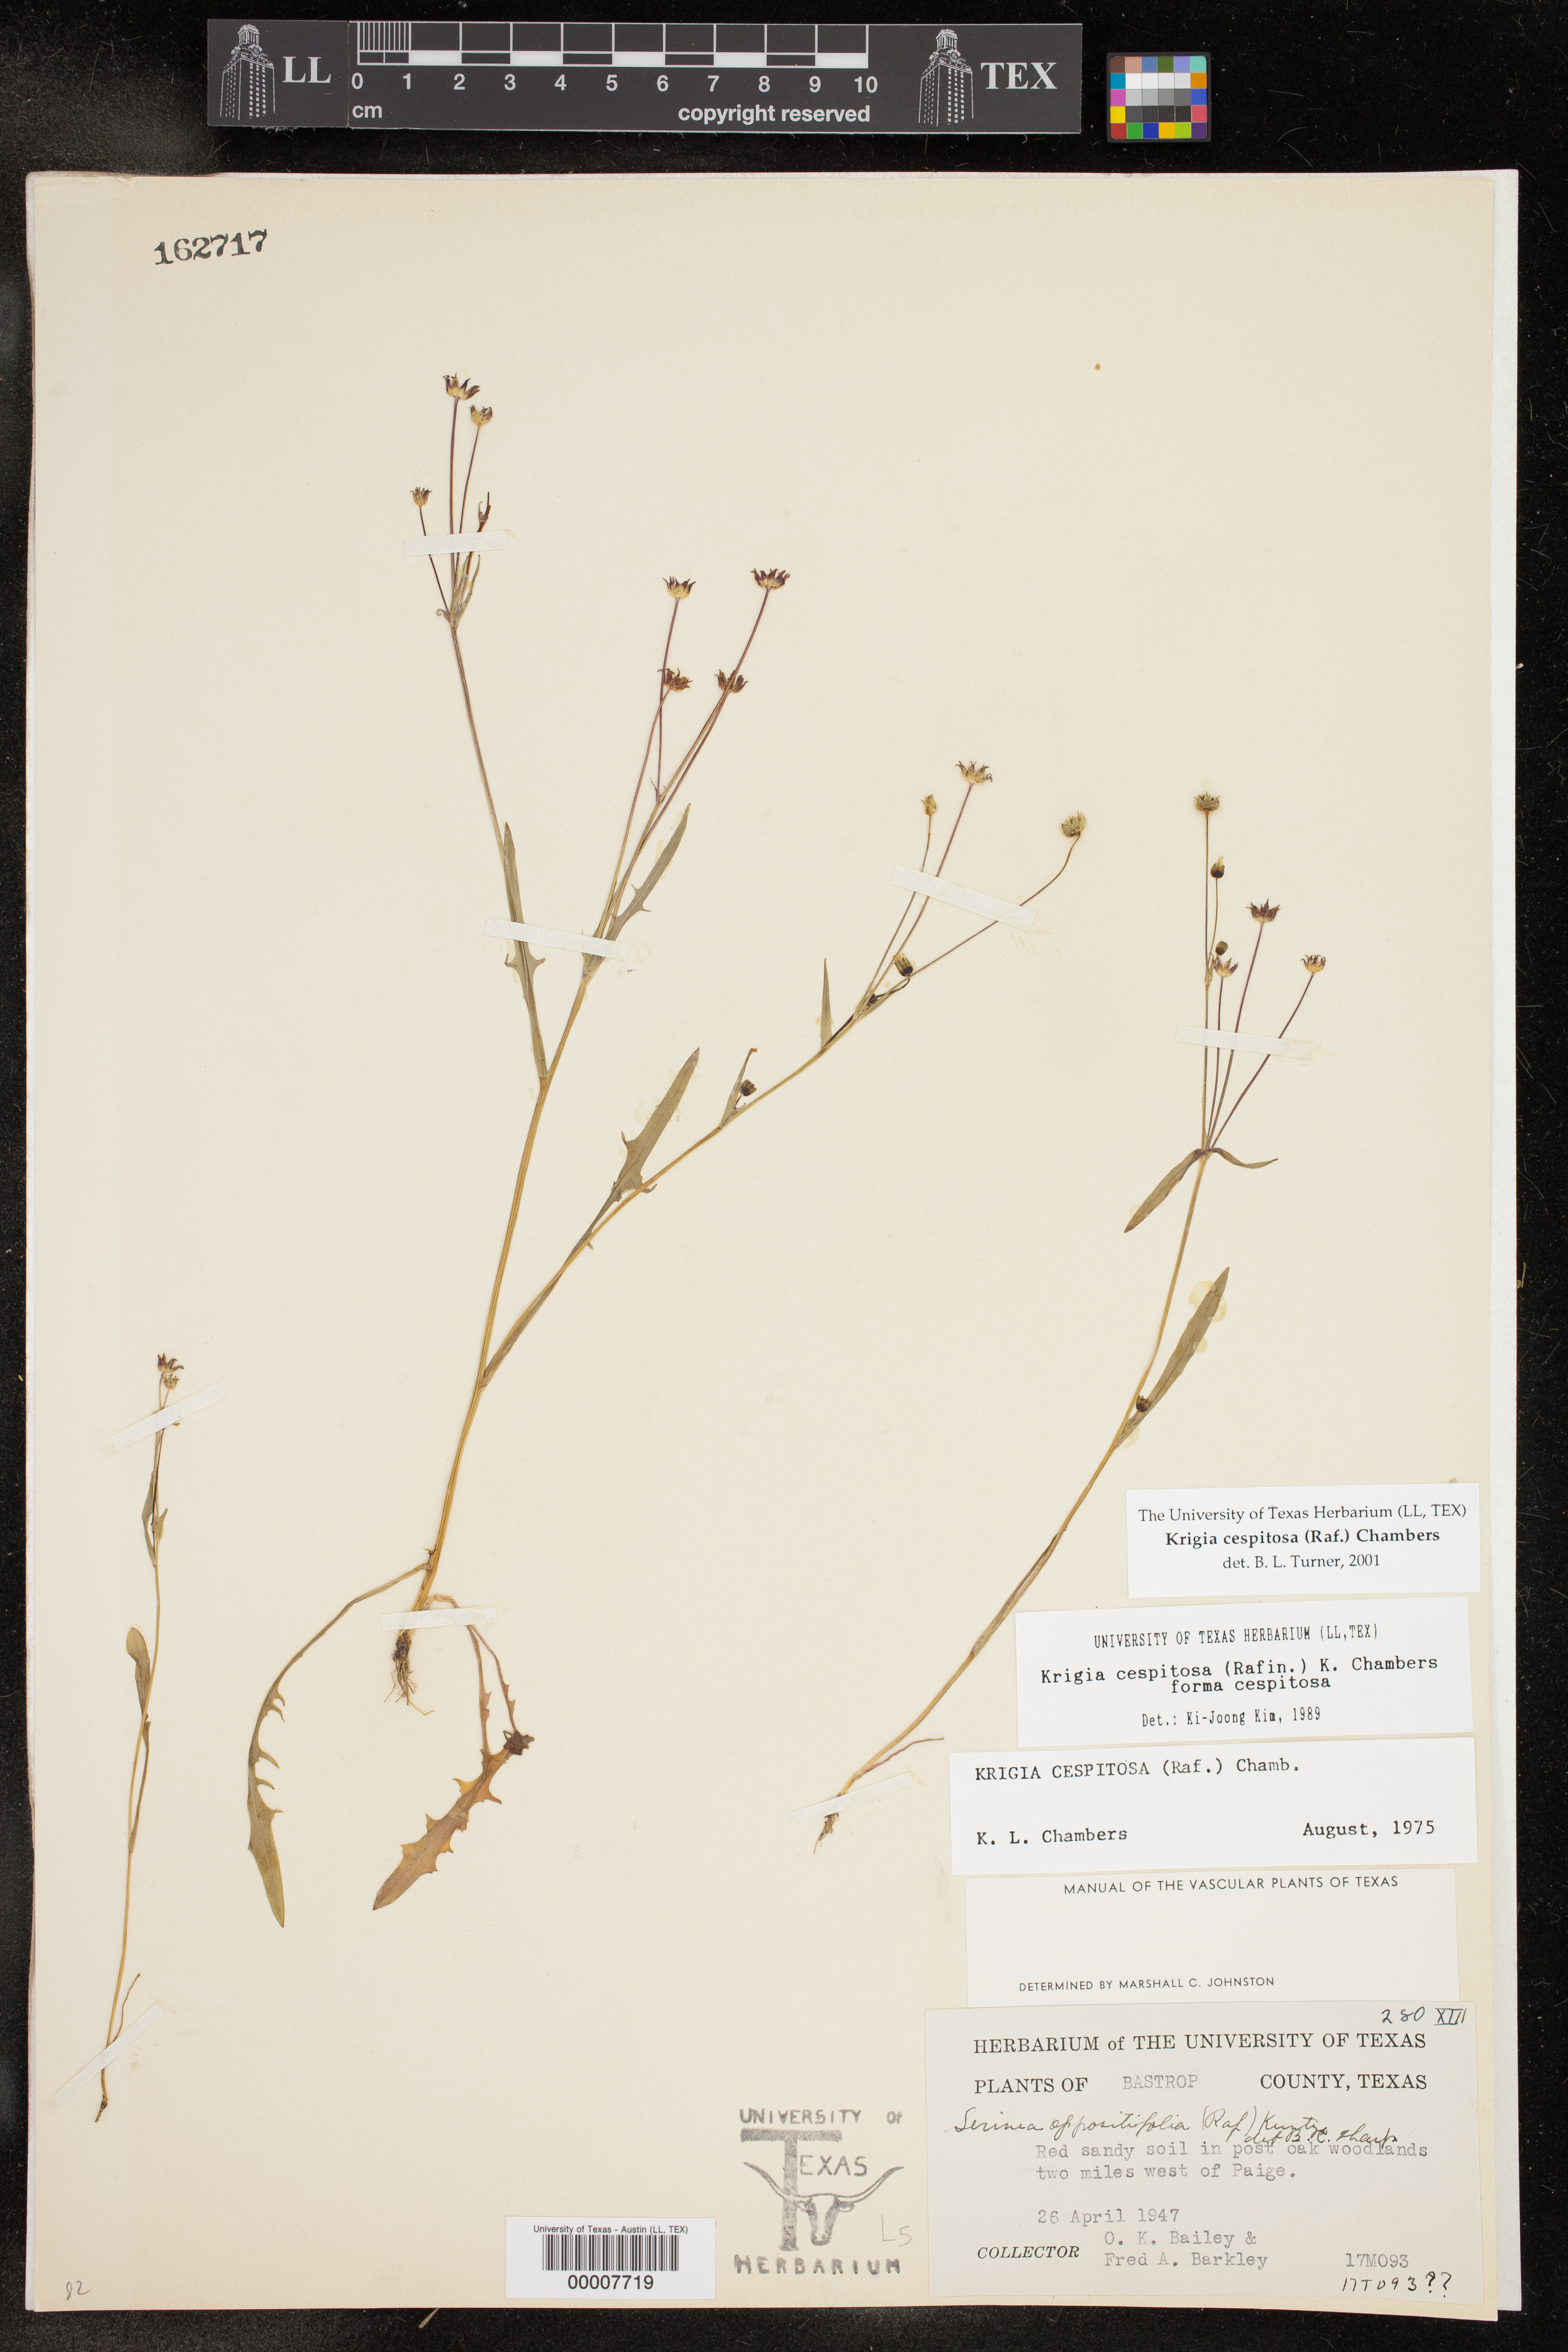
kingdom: Plantae
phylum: Tracheophyta
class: Magnoliopsida
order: Asterales
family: Asteraceae
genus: Krigia
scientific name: Krigia cespitosa
